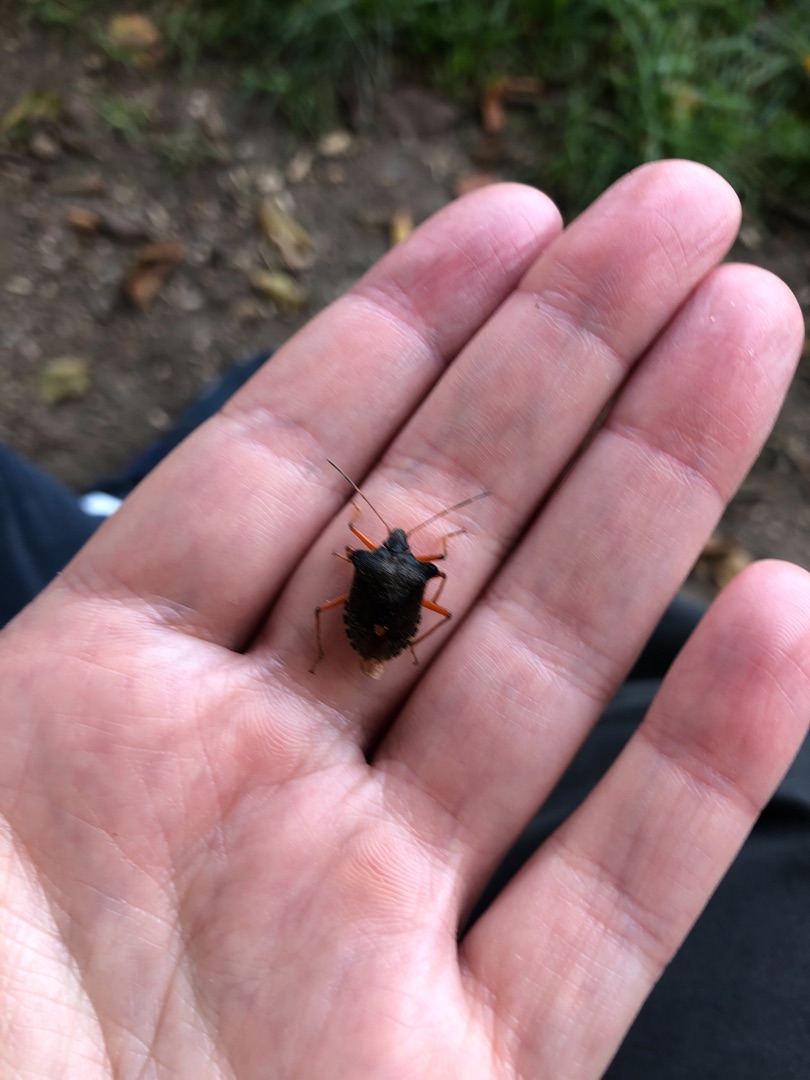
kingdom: Animalia
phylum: Arthropoda
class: Insecta
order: Hemiptera
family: Pentatomidae
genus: Pentatoma
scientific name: Pentatoma rufipes
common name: Rødbenet bredtæge
